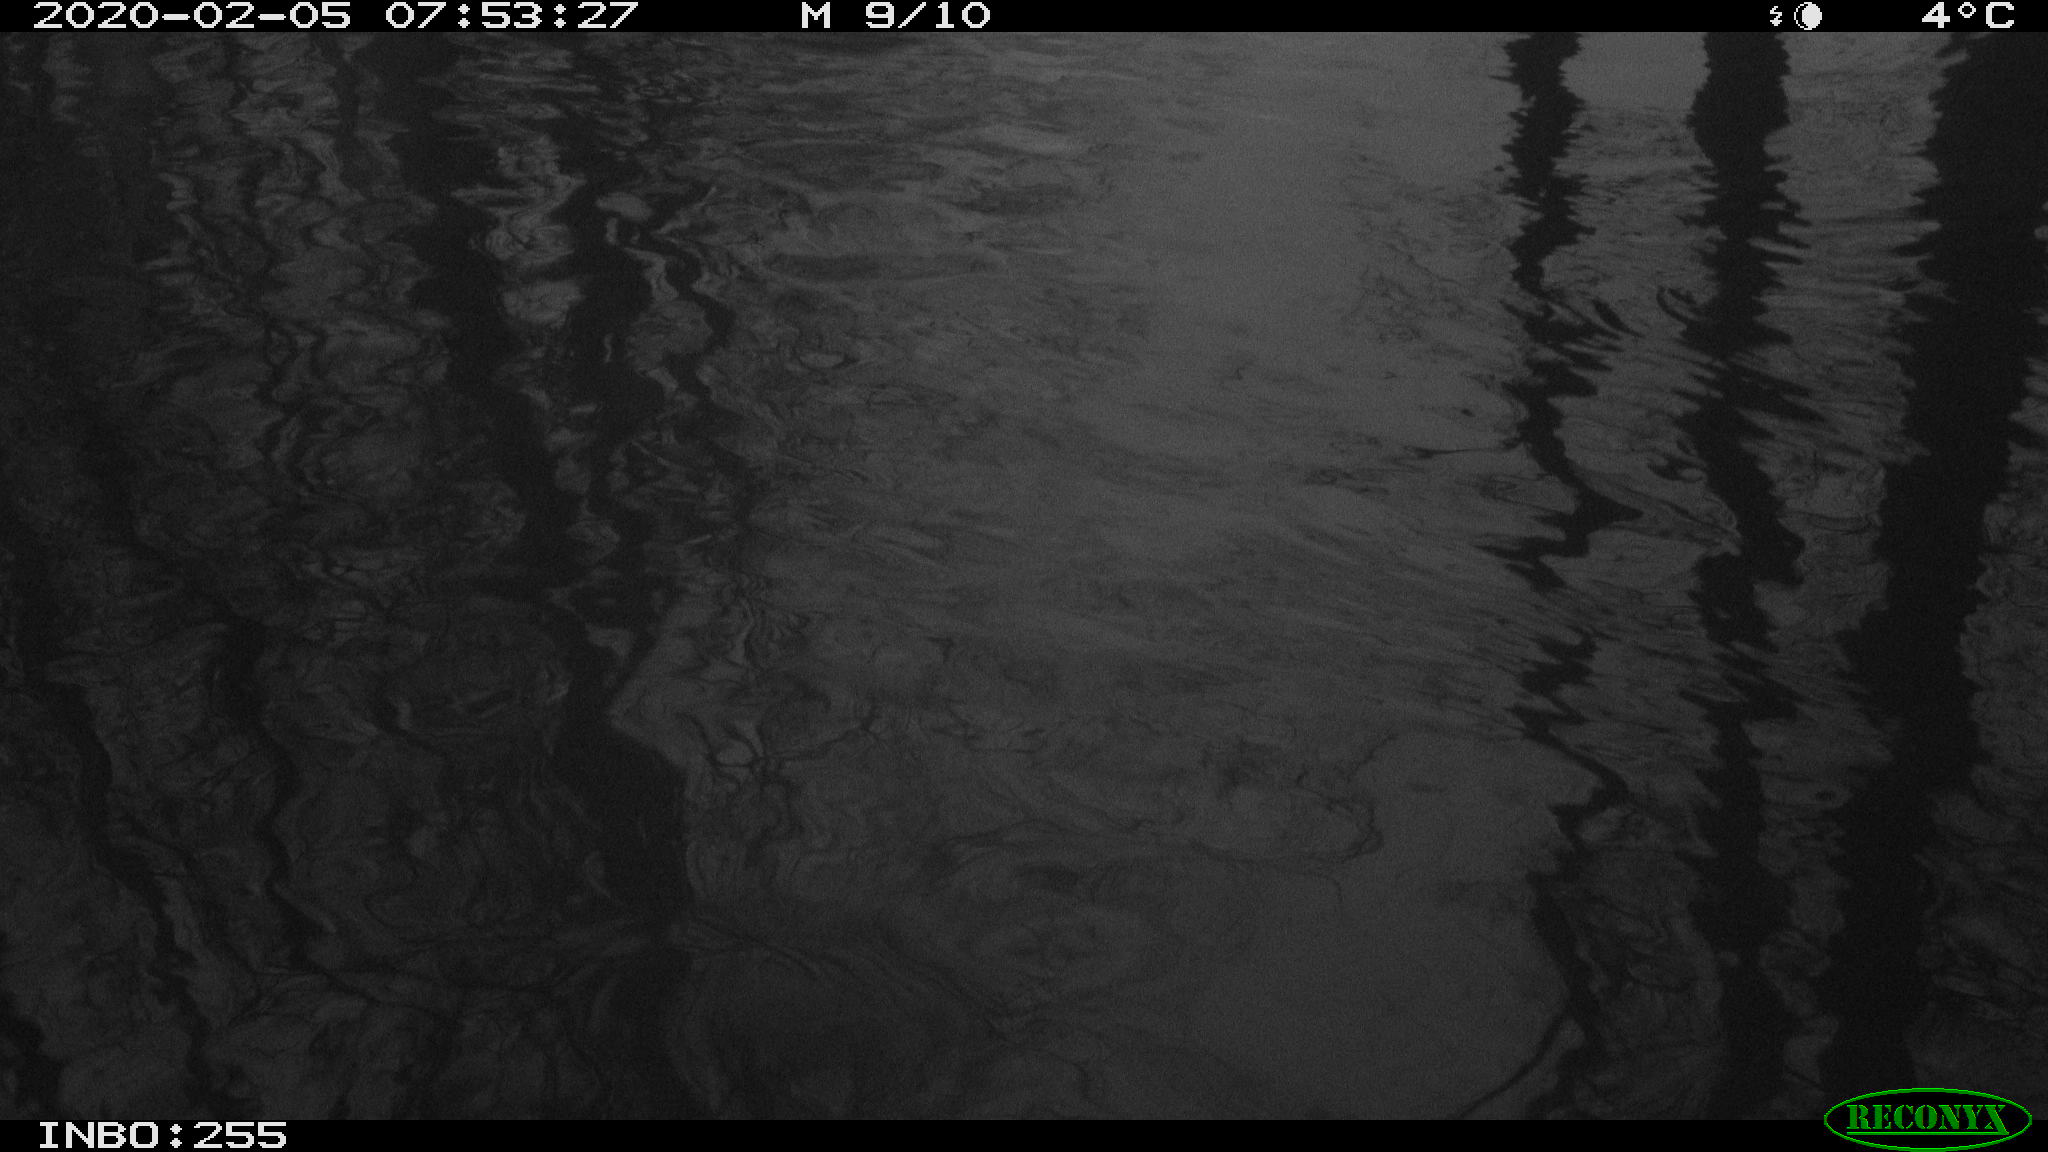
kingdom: Animalia
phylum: Chordata
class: Aves
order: Gruiformes
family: Rallidae
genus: Fulica
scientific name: Fulica atra
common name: Eurasian coot
